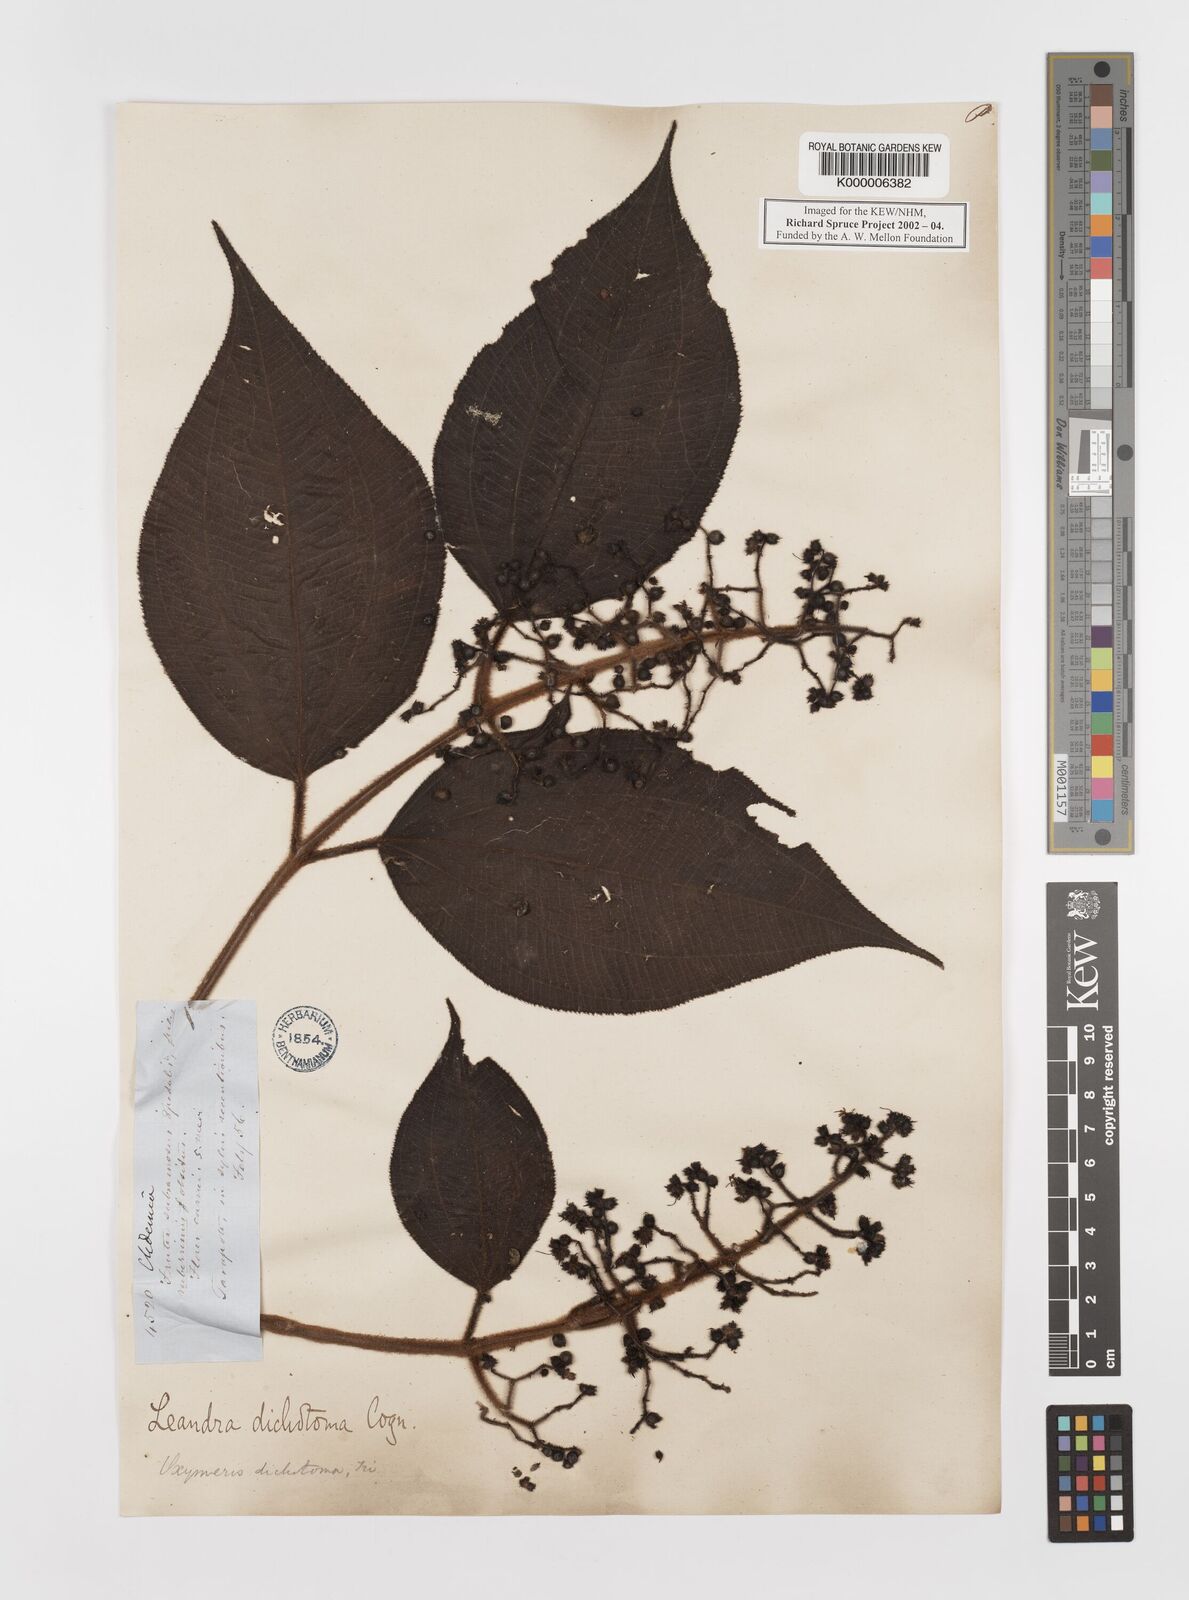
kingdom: Plantae
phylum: Tracheophyta
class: Magnoliopsida
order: Myrtales
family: Melastomataceae
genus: Miconia
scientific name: Miconia sulcicaulis
